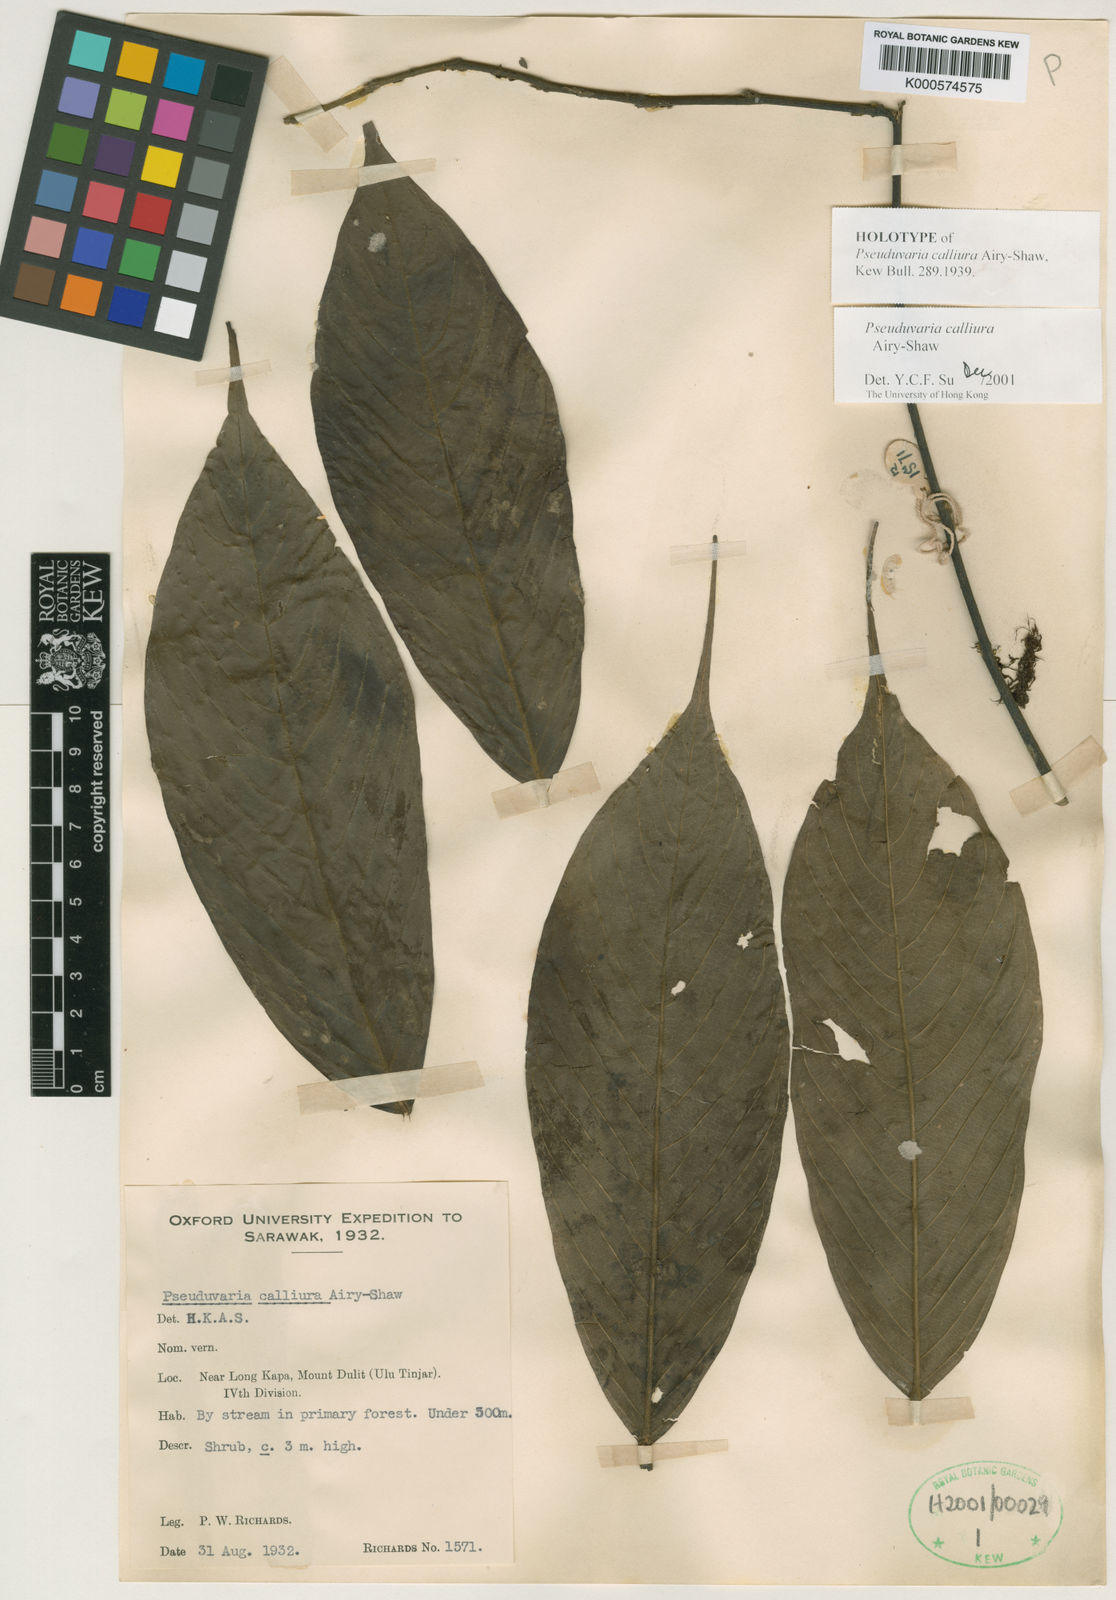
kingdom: Plantae
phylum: Tracheophyta
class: Magnoliopsida
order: Magnoliales
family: Annonaceae
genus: Pseuduvaria
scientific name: Pseuduvaria calliura
